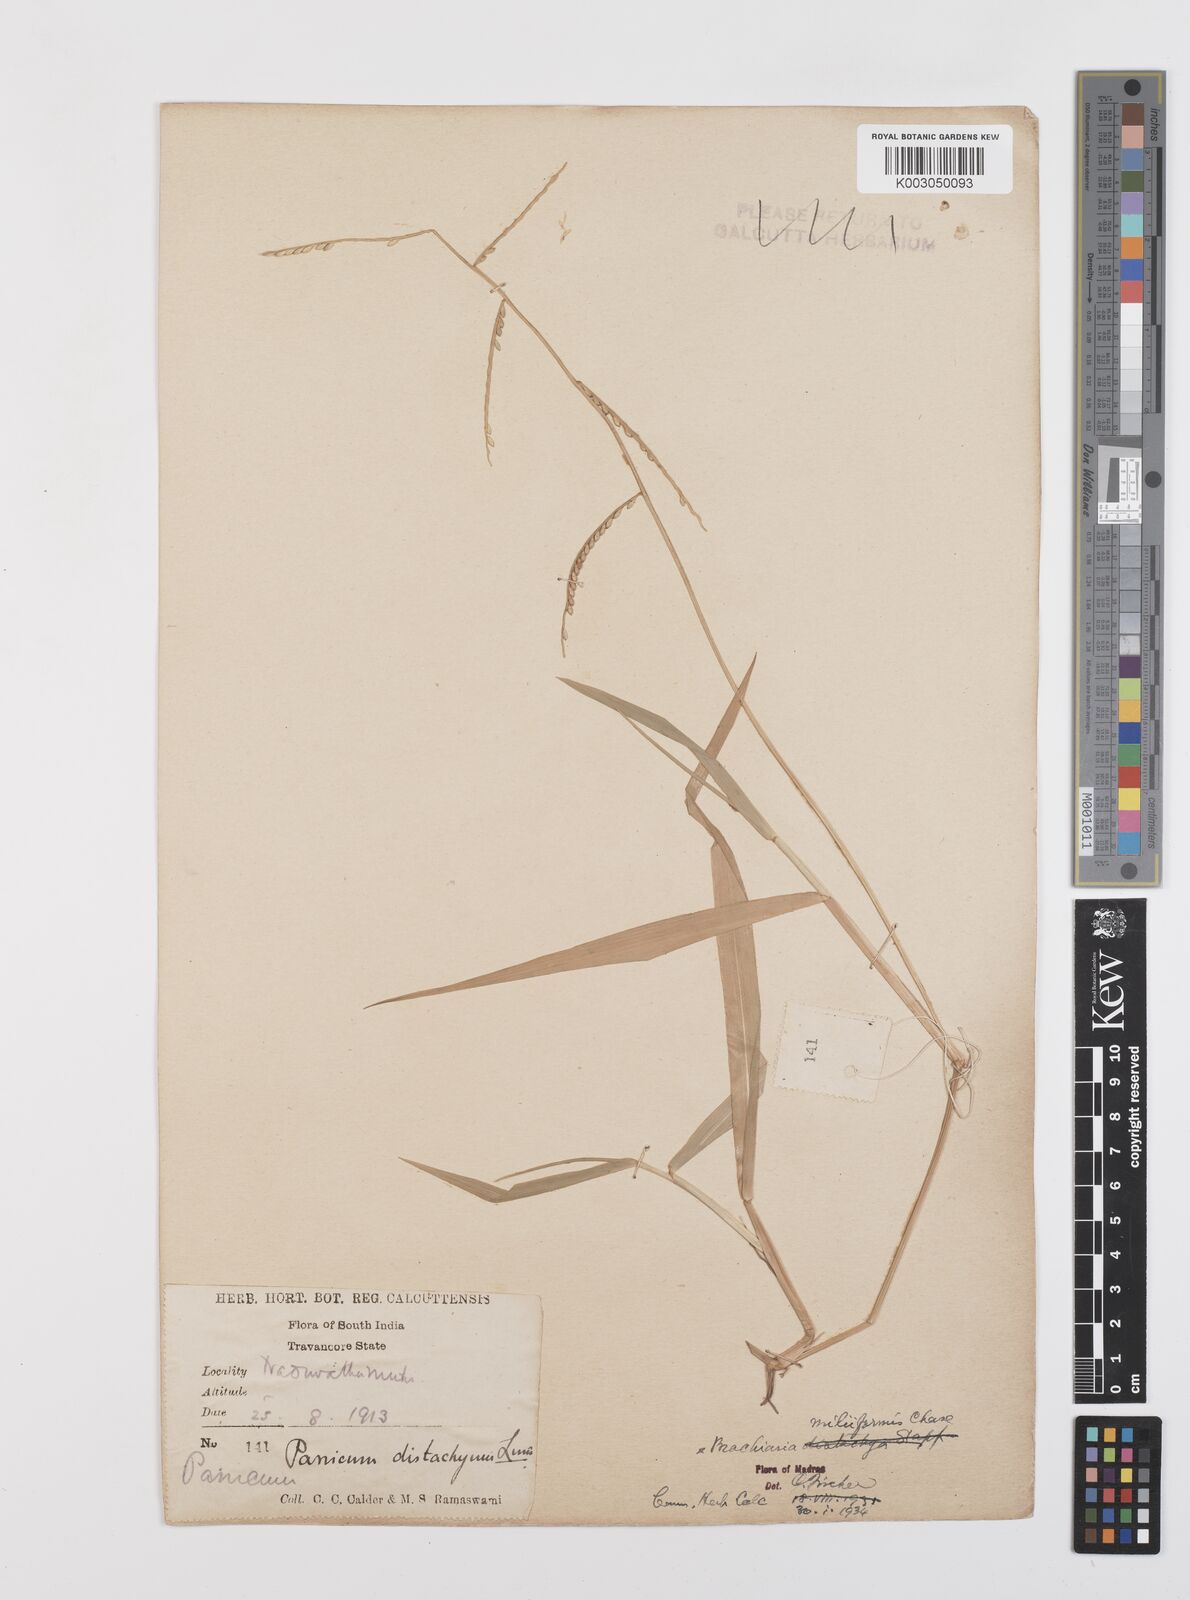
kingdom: Plantae
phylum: Tracheophyta
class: Liliopsida
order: Poales
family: Poaceae
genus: Urochloa
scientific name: Urochloa subquadripara
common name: Armgrass millet
